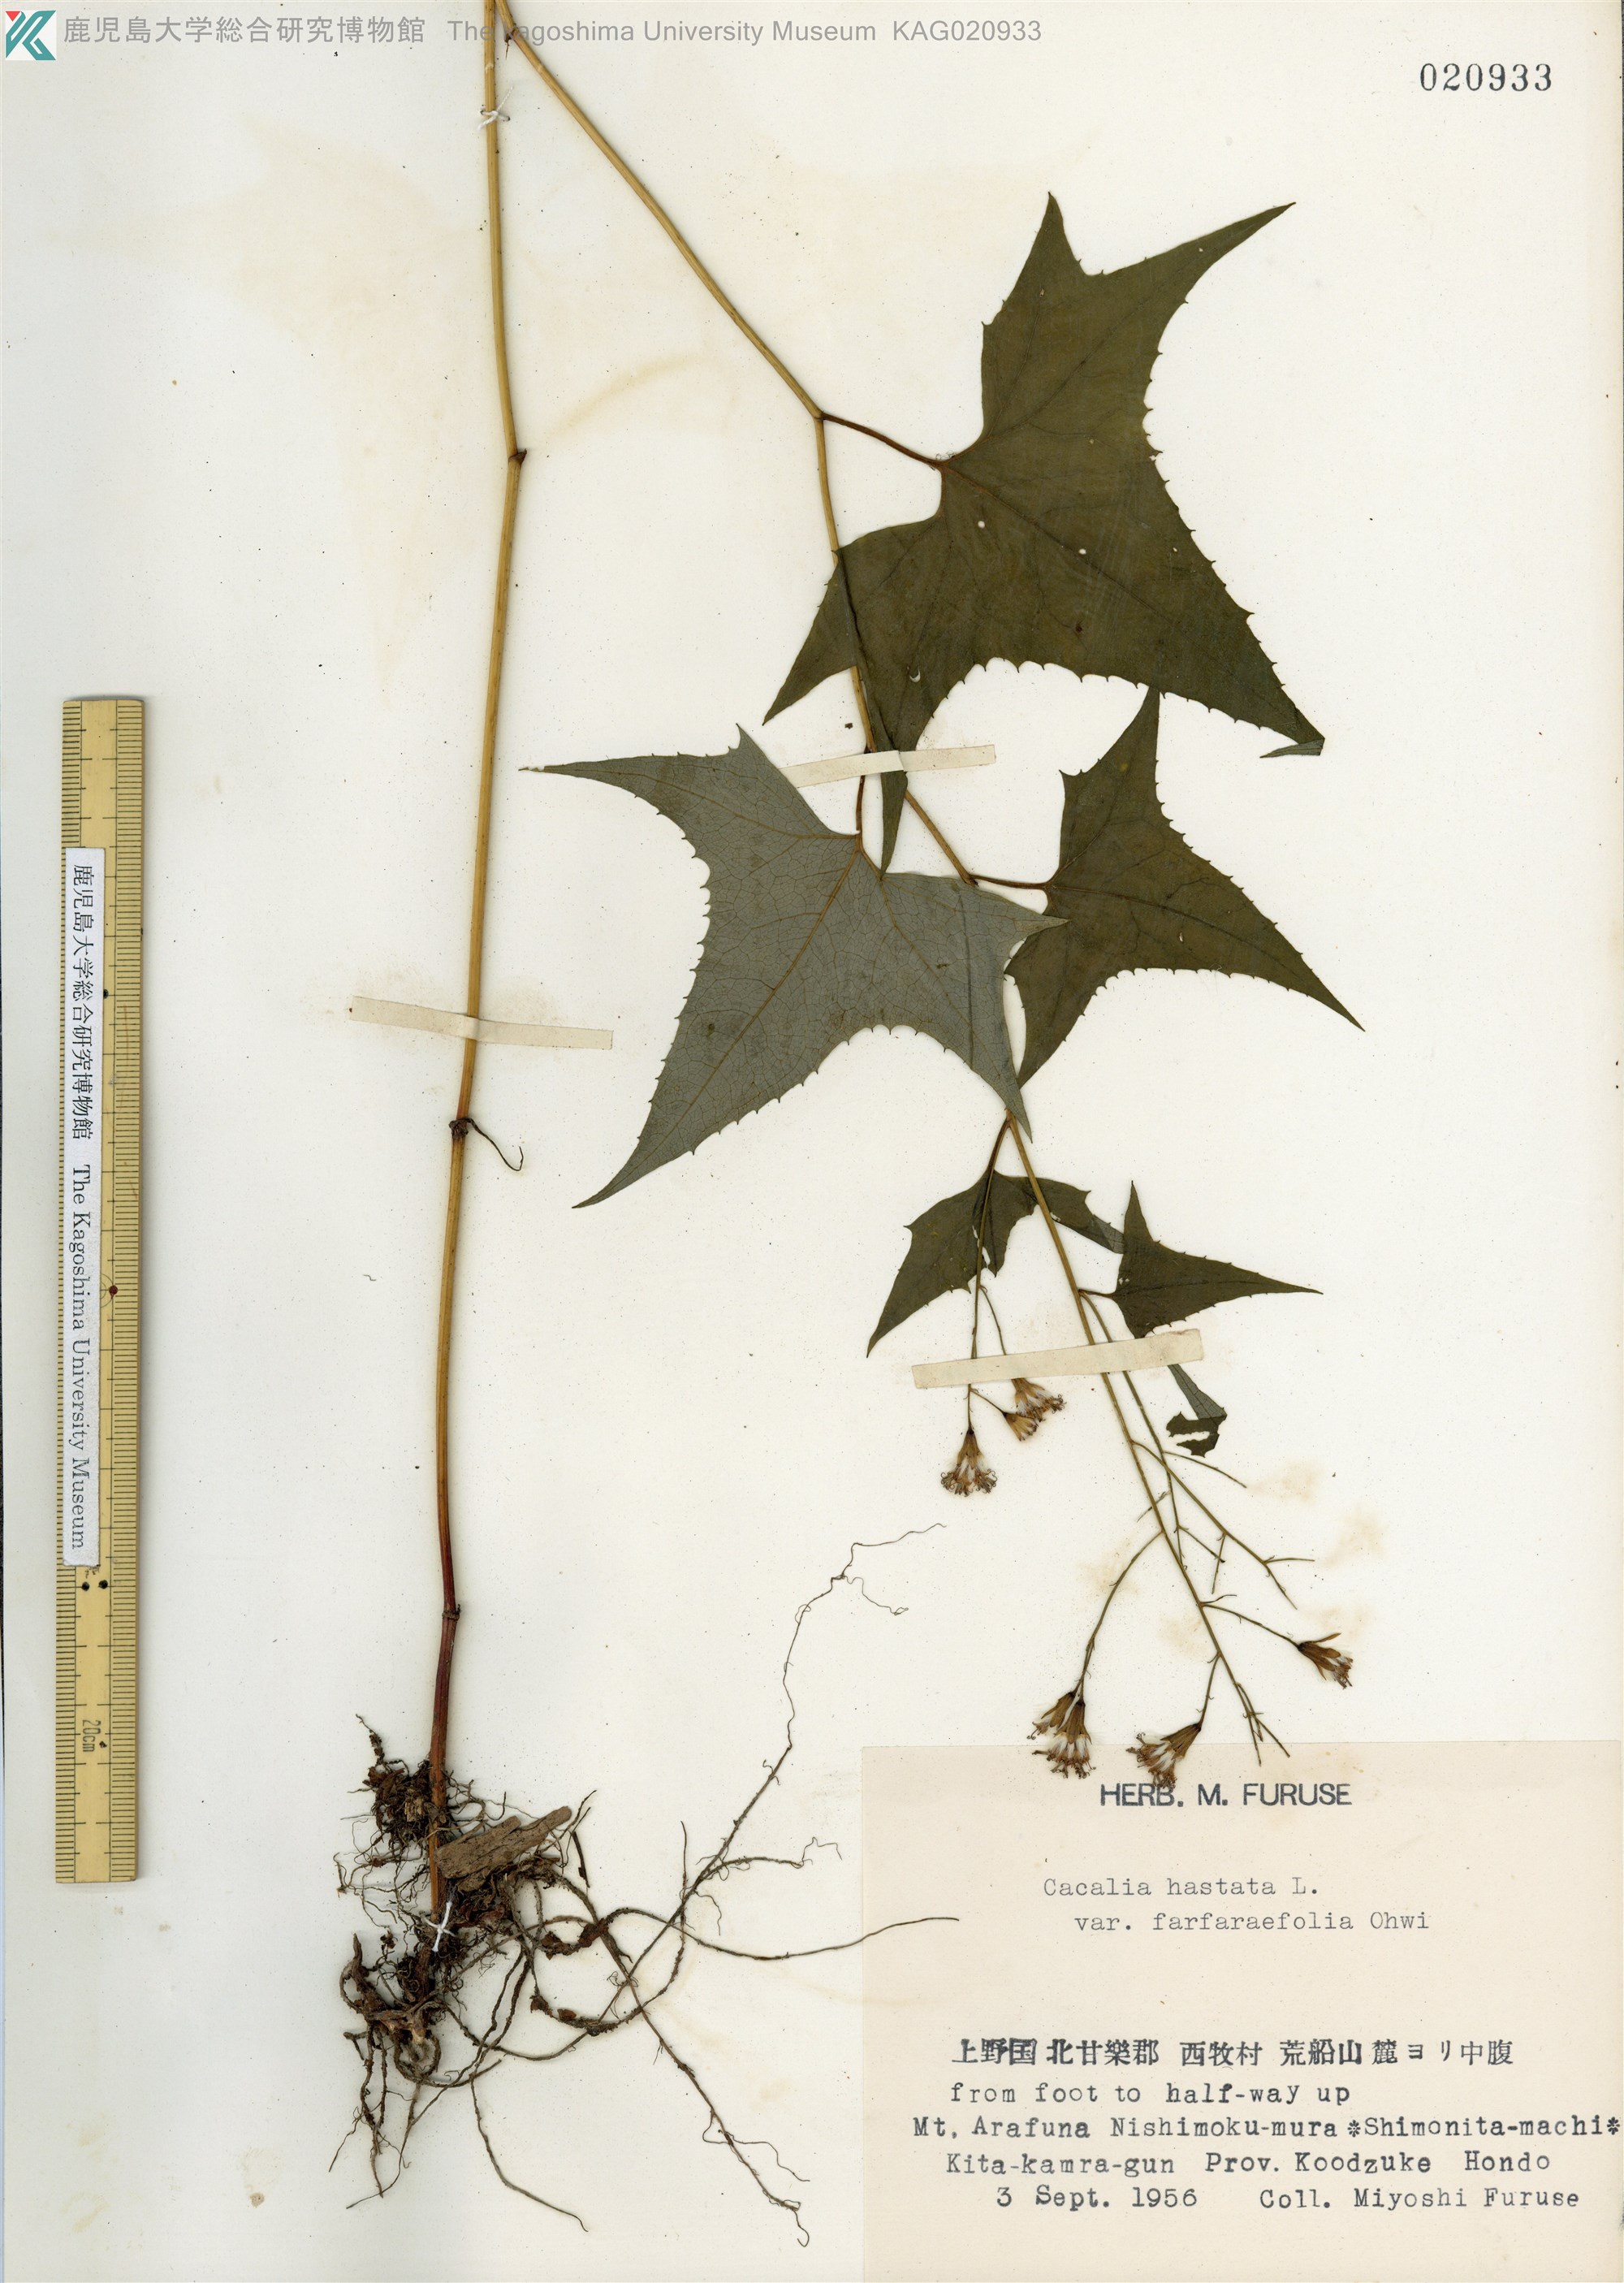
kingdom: Plantae
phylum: Tracheophyta
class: Magnoliopsida
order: Asterales
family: Asteraceae
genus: Parasenecio
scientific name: Parasenecio maximowicziana
